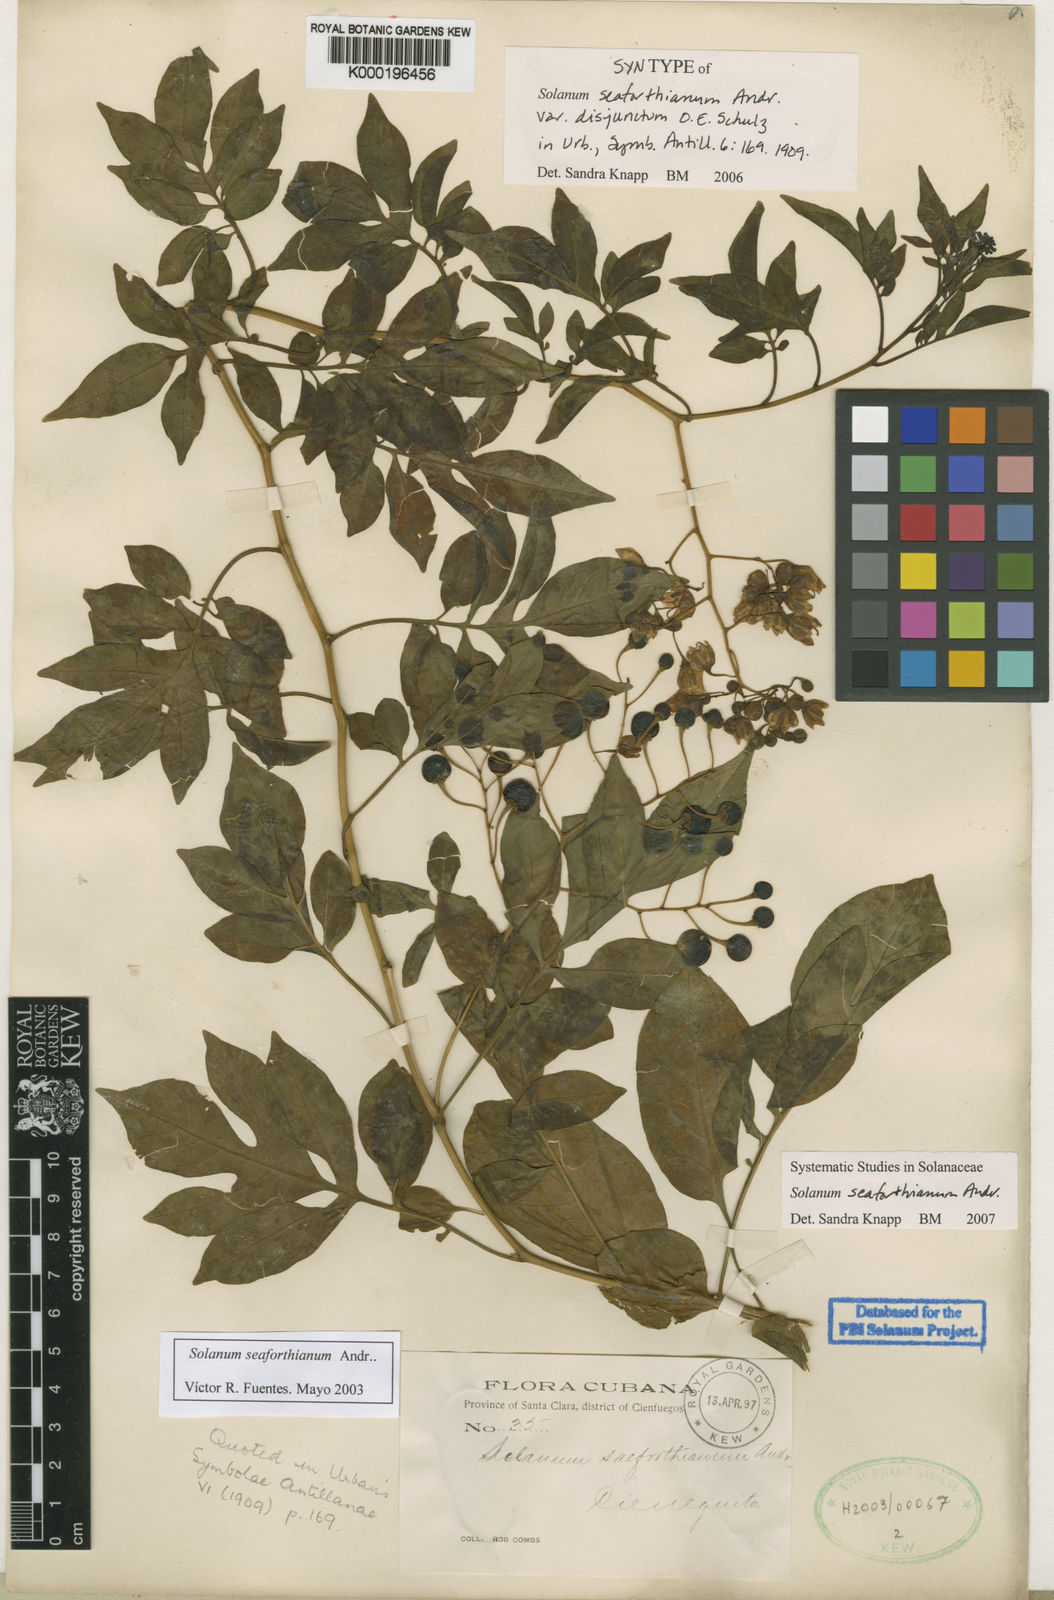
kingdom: Plantae
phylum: Tracheophyta
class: Magnoliopsida
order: Solanales
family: Solanaceae
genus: Solanum
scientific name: Solanum seaforthianum
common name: Brazilian nightshade
